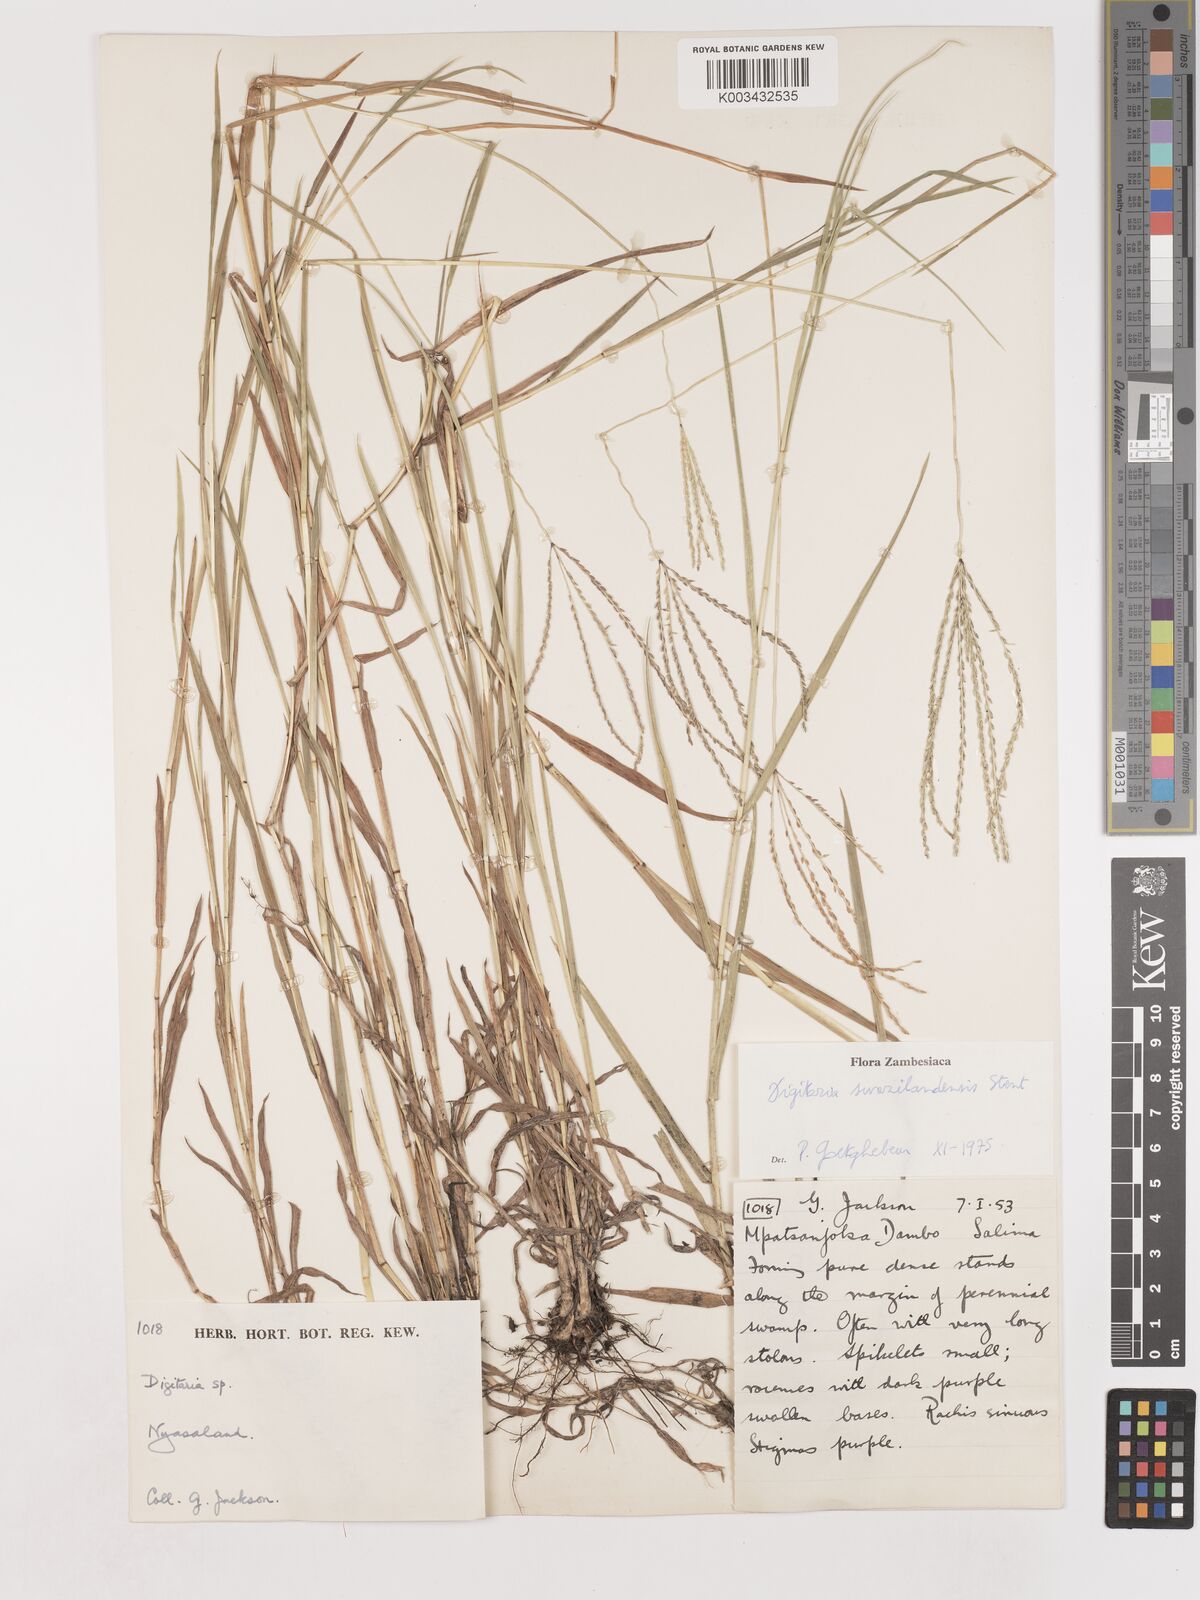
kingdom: Plantae
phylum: Tracheophyta
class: Liliopsida
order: Poales
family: Poaceae
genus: Digitaria
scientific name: Digitaria didactyla
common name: Blue couch
